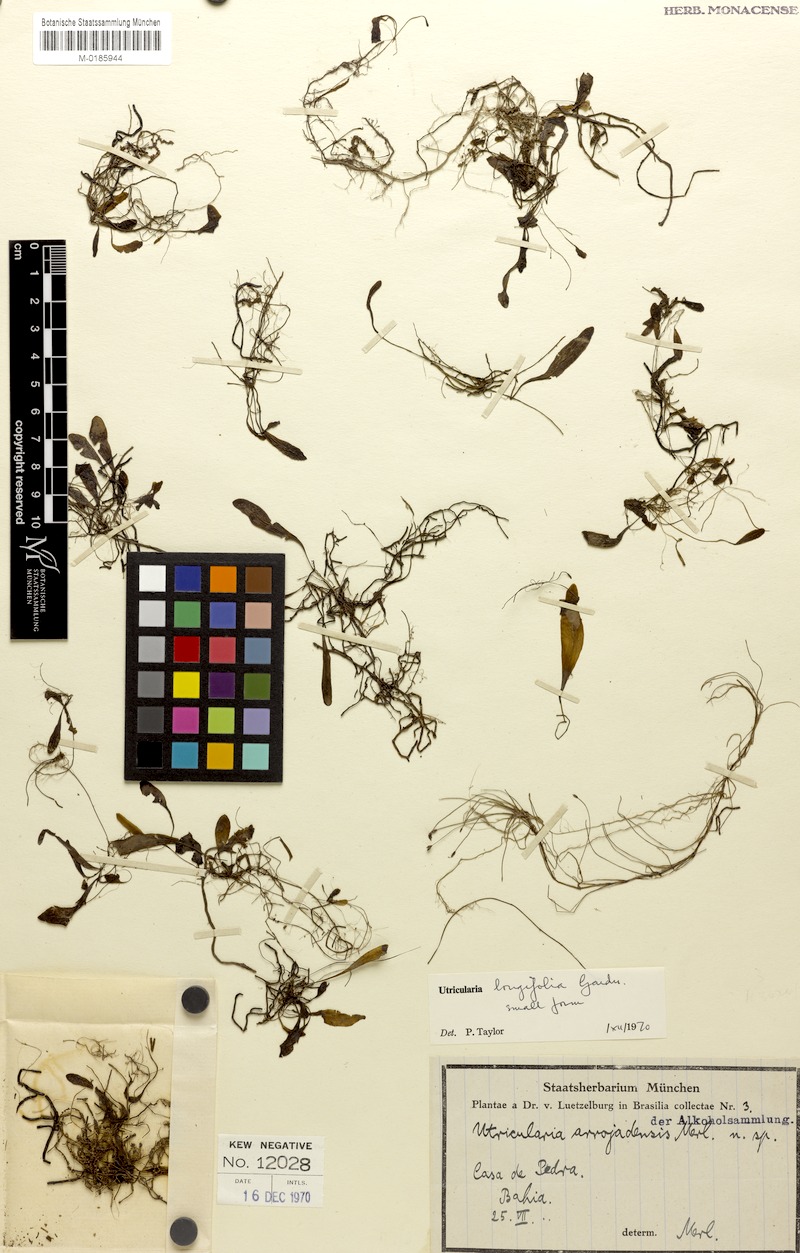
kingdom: Plantae
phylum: Tracheophyta
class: Magnoliopsida
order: Lamiales
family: Lentibulariaceae
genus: Utricularia
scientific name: Utricularia longifolia
